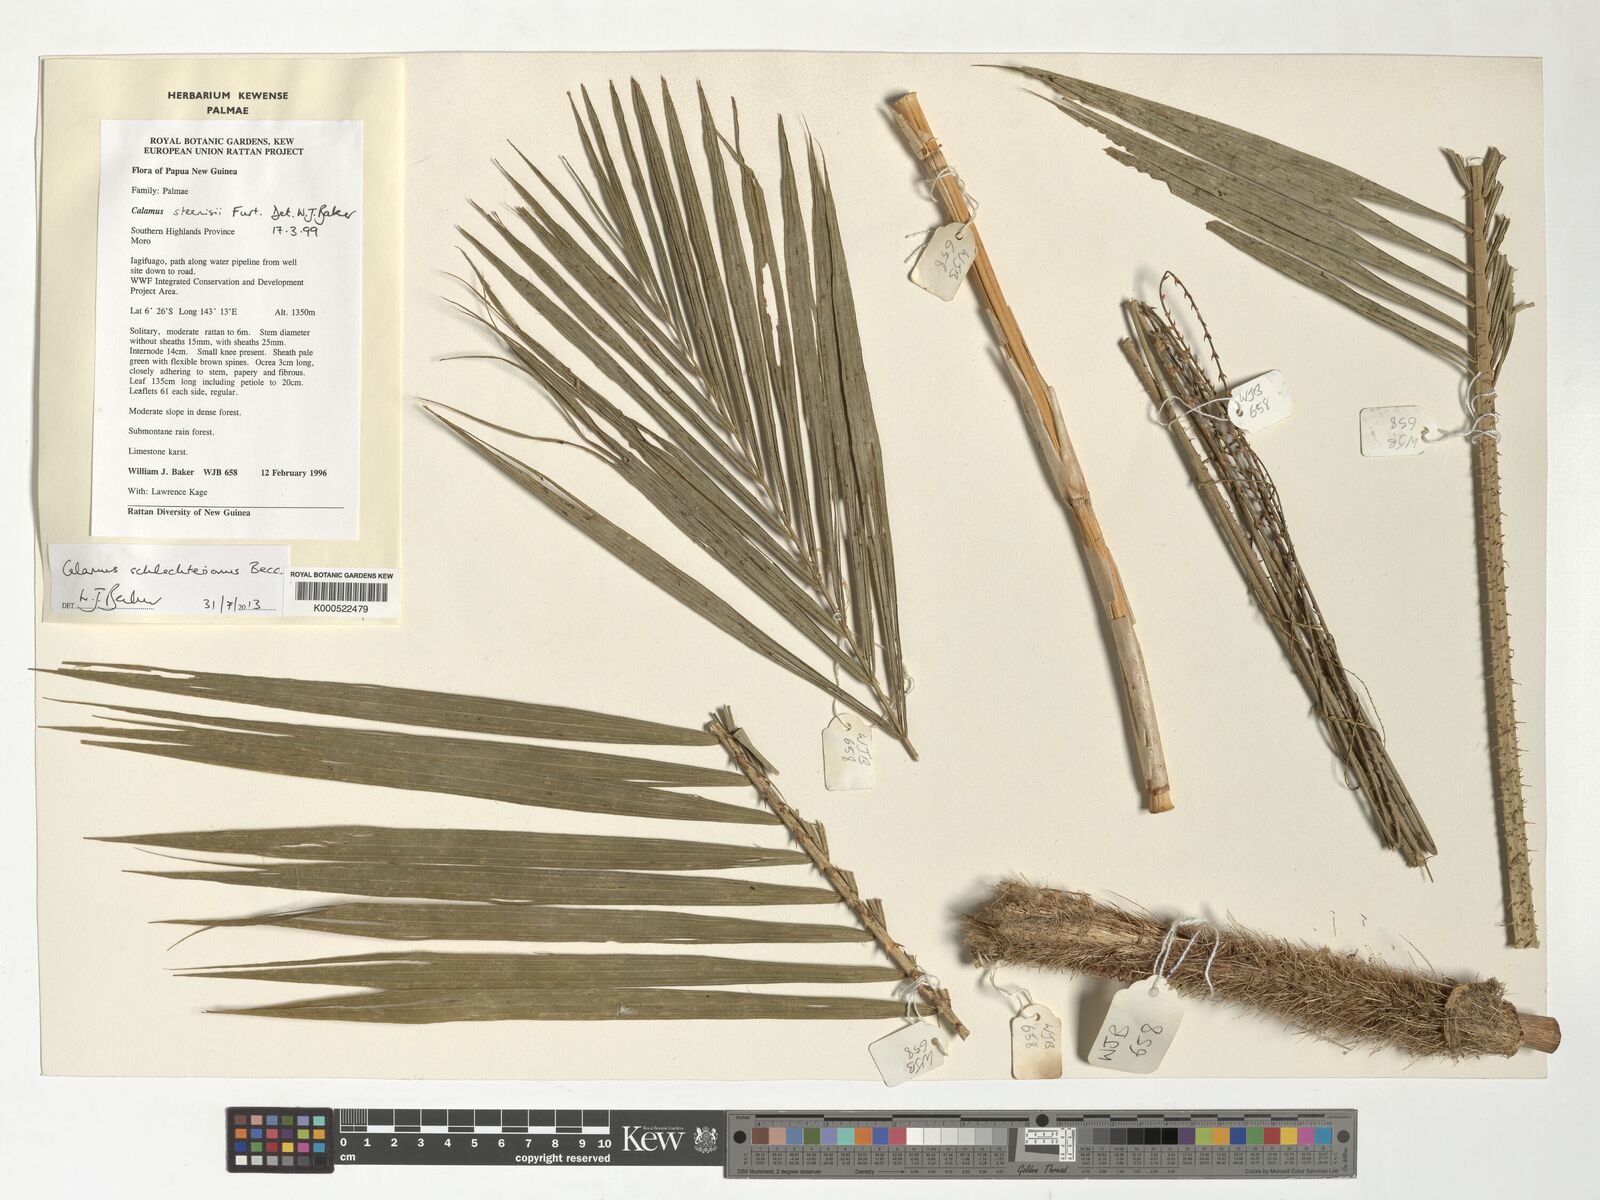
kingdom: Plantae
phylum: Tracheophyta
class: Liliopsida
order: Arecales
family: Arecaceae
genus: Calamus
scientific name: Calamus
